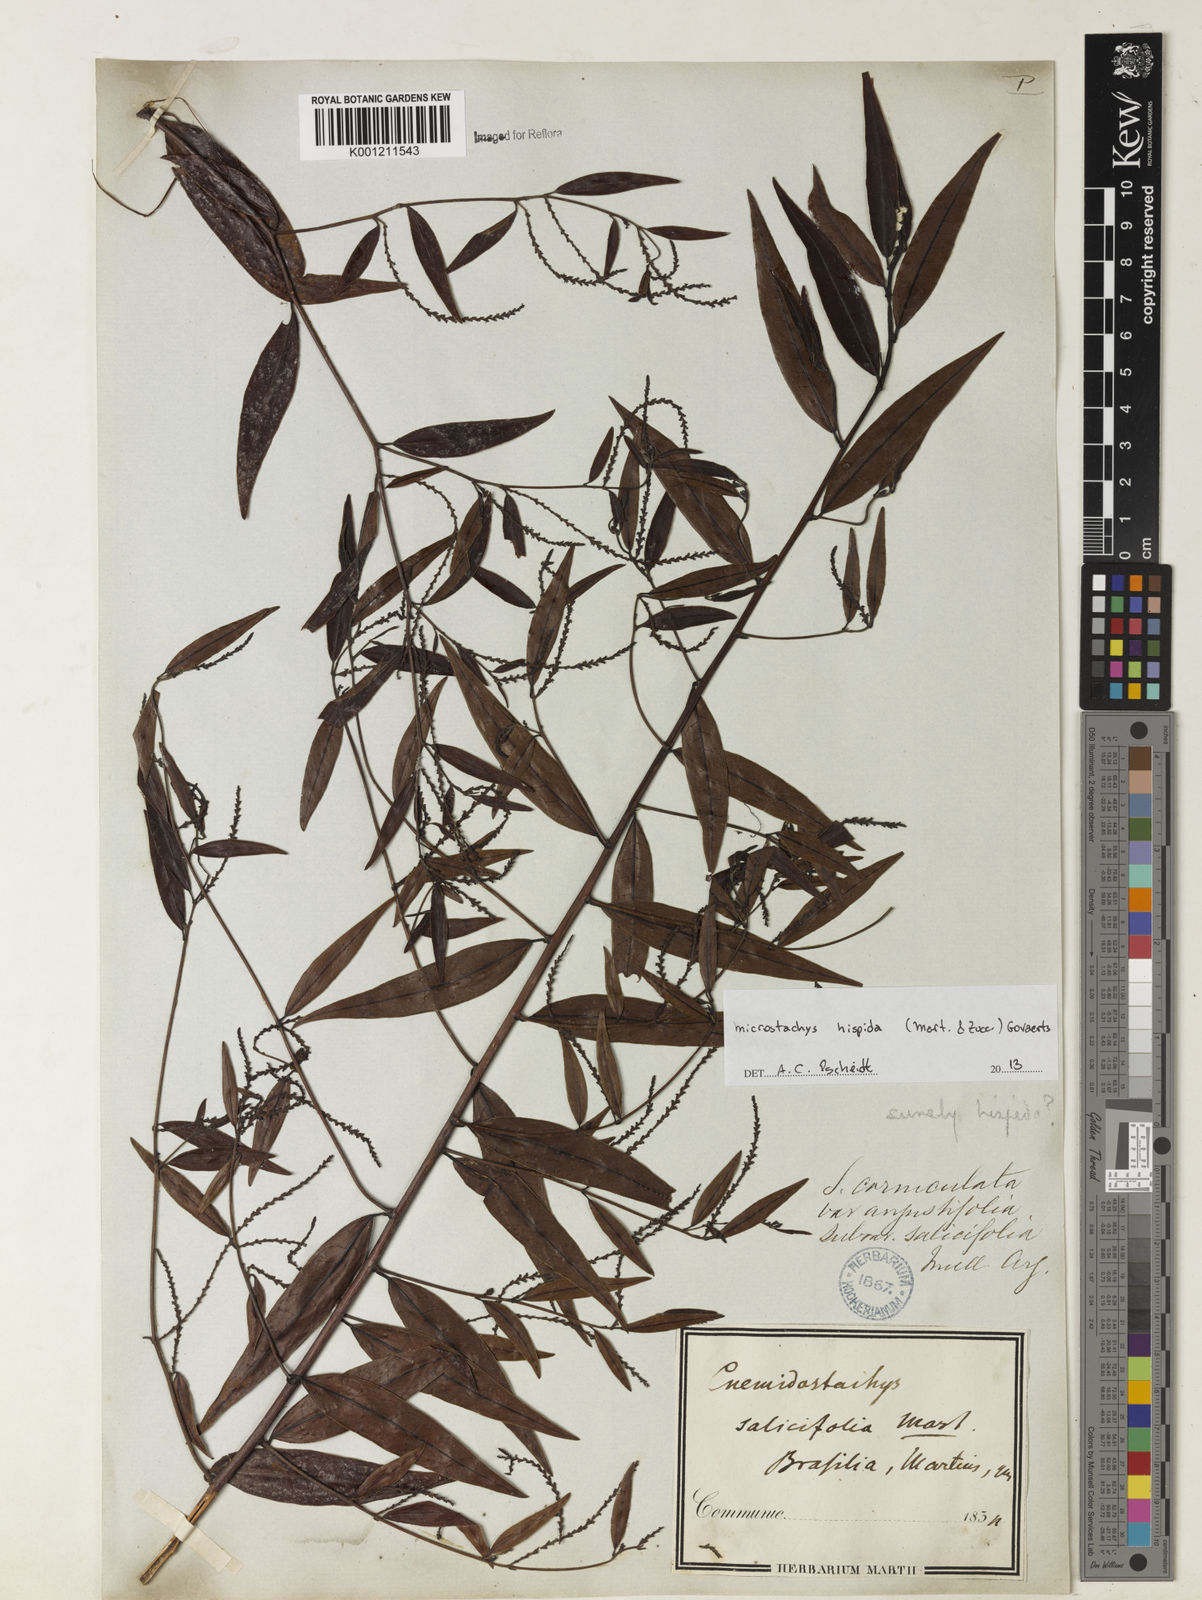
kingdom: Plantae
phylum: Tracheophyta
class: Magnoliopsida
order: Malpighiales
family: Euphorbiaceae
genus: Microstachys
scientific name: Microstachys hispida
